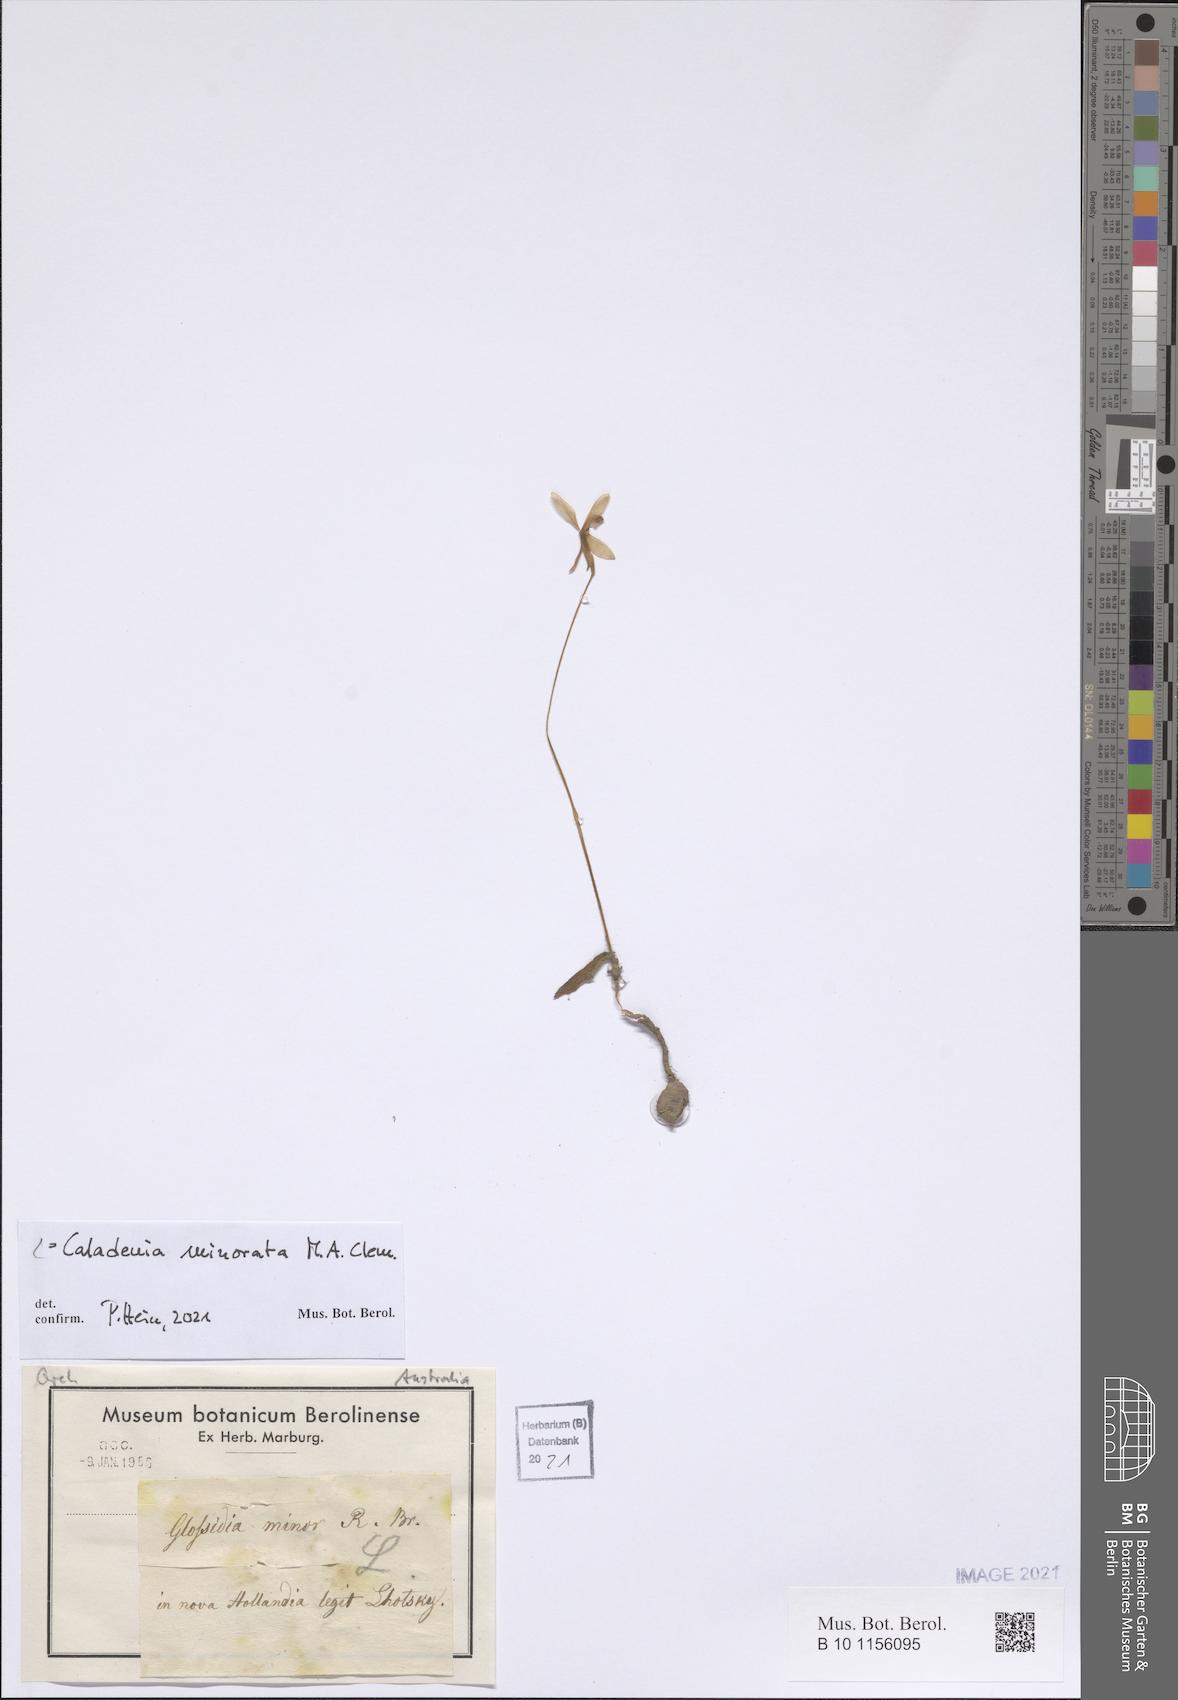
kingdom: Plantae
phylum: Tracheophyta
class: Liliopsida
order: Asparagales
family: Orchidaceae
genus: Caladenia
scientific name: Caladenia minorata
